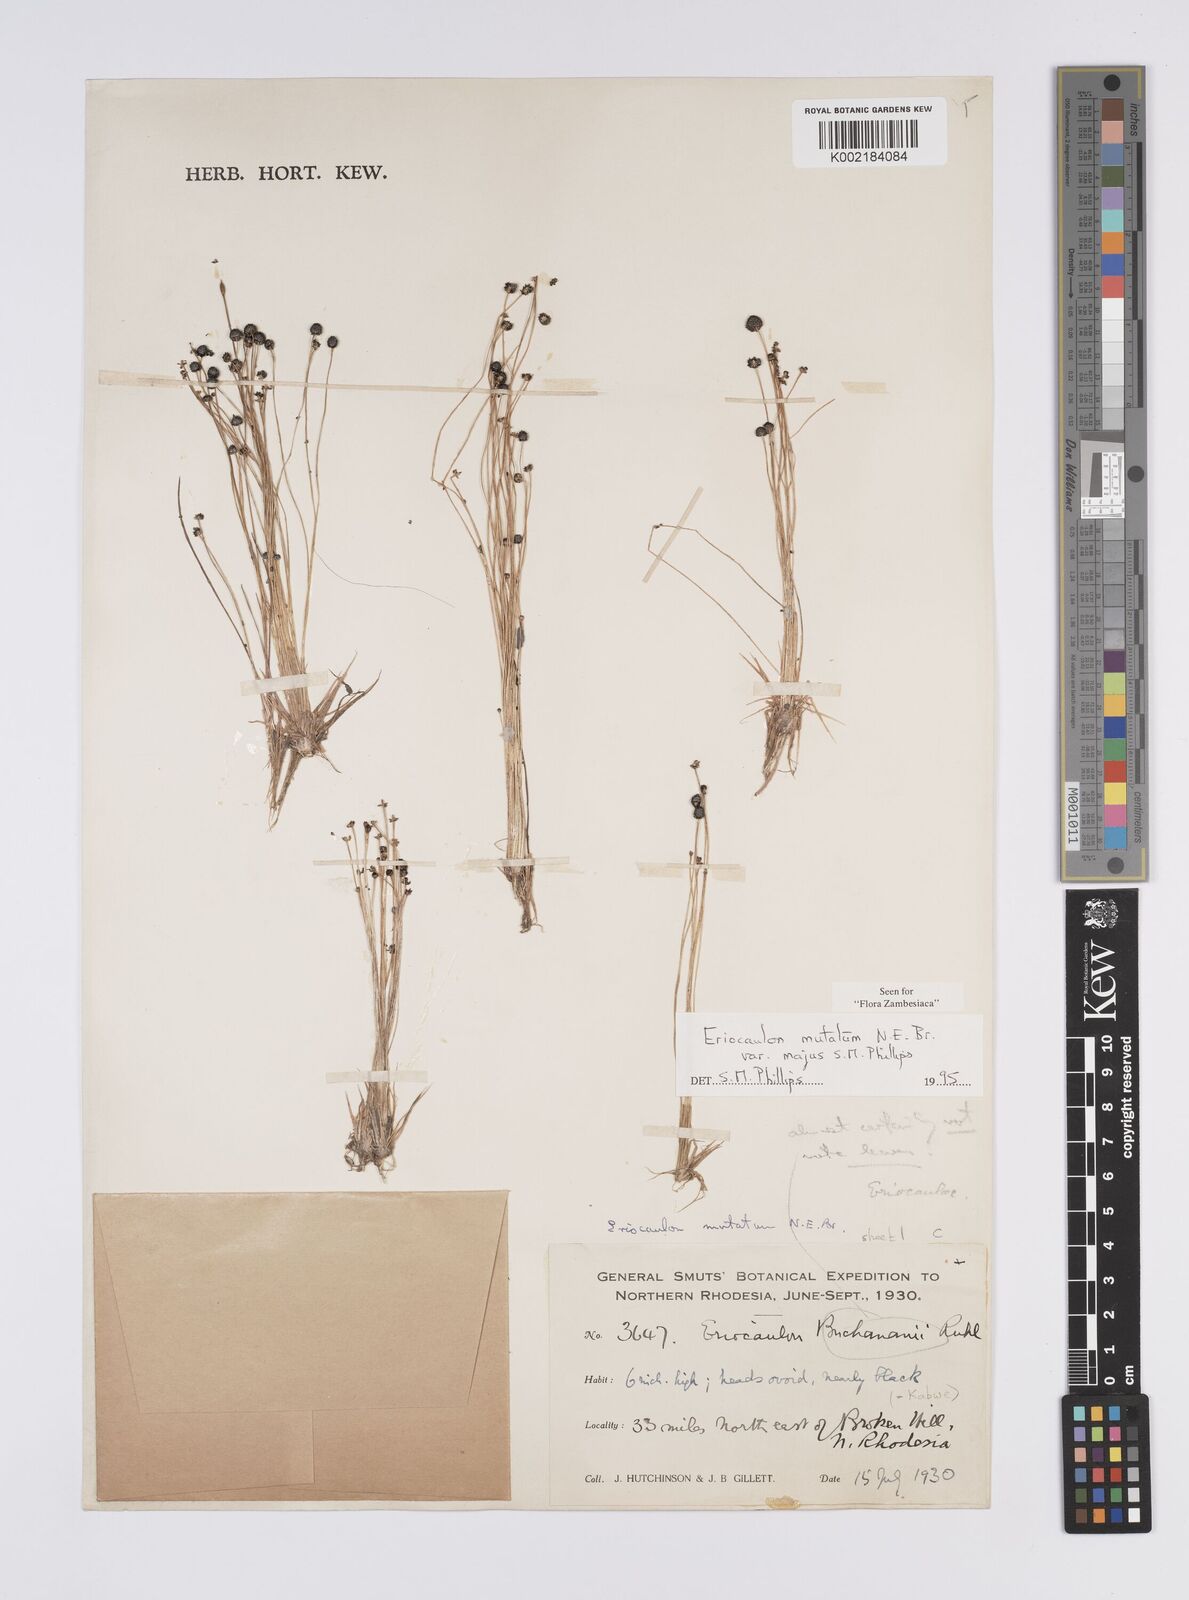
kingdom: Plantae
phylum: Tracheophyta
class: Liliopsida
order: Poales
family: Eriocaulaceae
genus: Eriocaulon
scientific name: Eriocaulon mutatum
